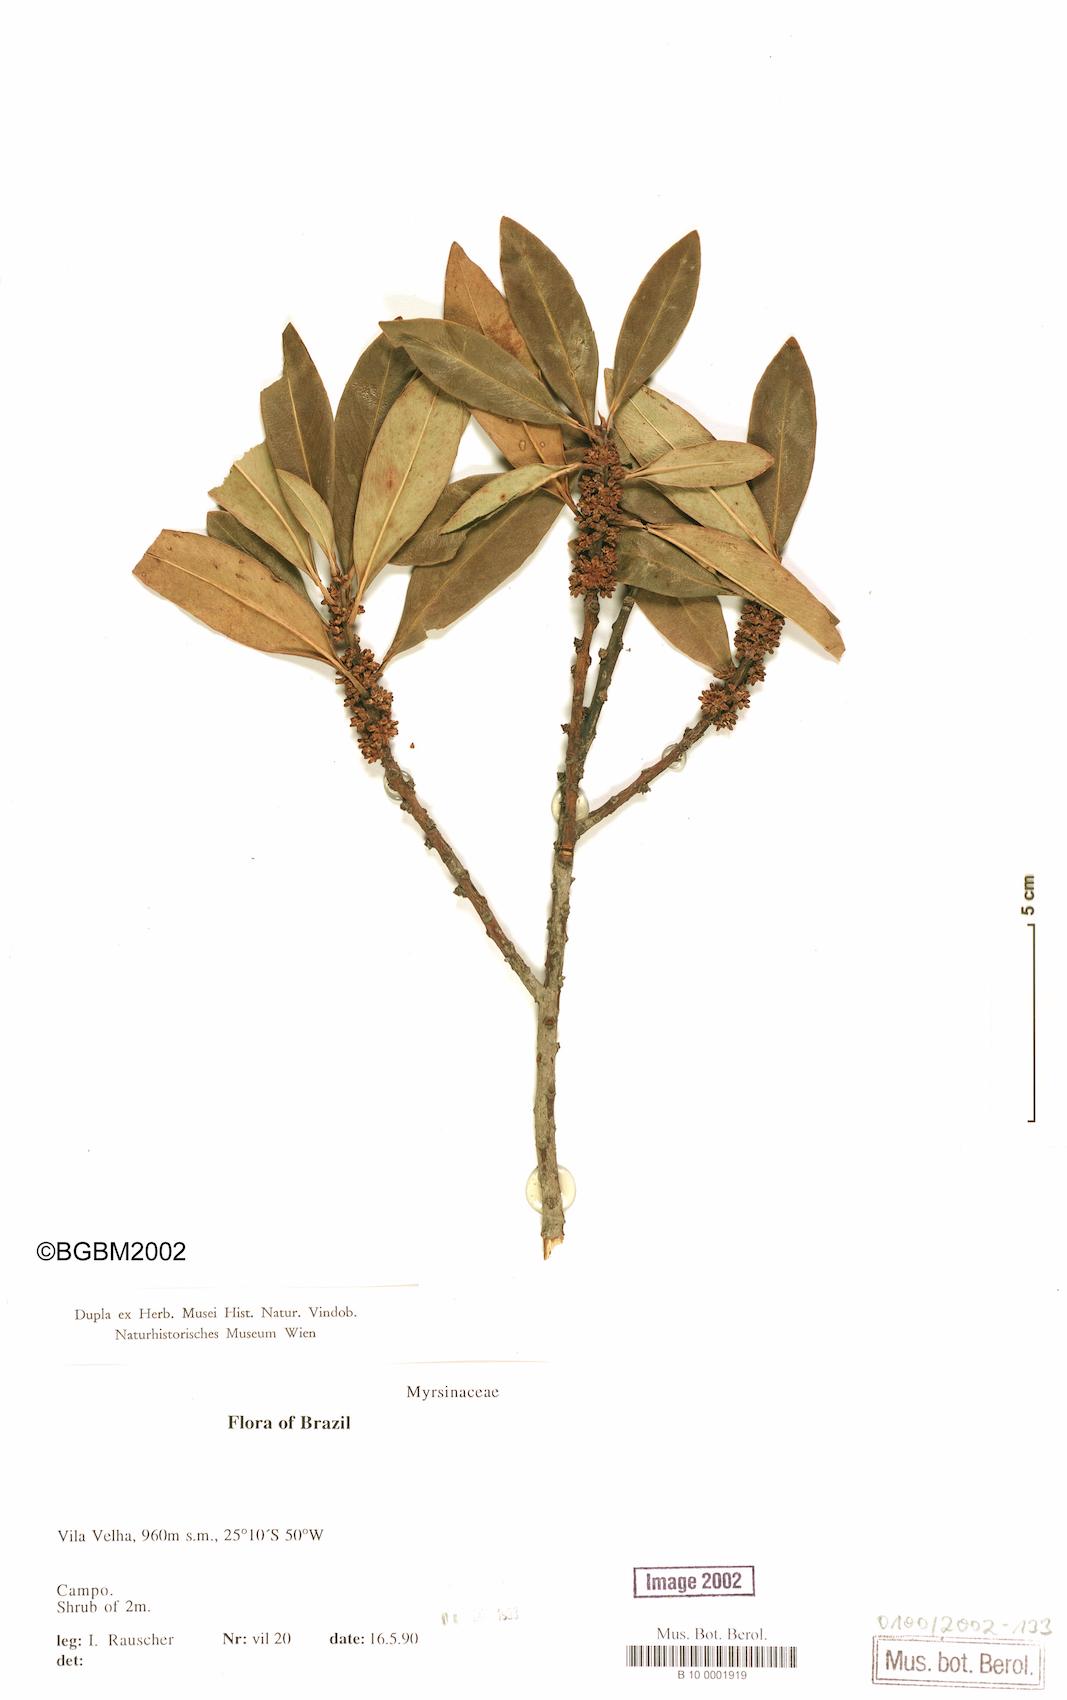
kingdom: Plantae
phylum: Tracheophyta
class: Magnoliopsida
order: Ericales
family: Primulaceae
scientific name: Primulaceae
